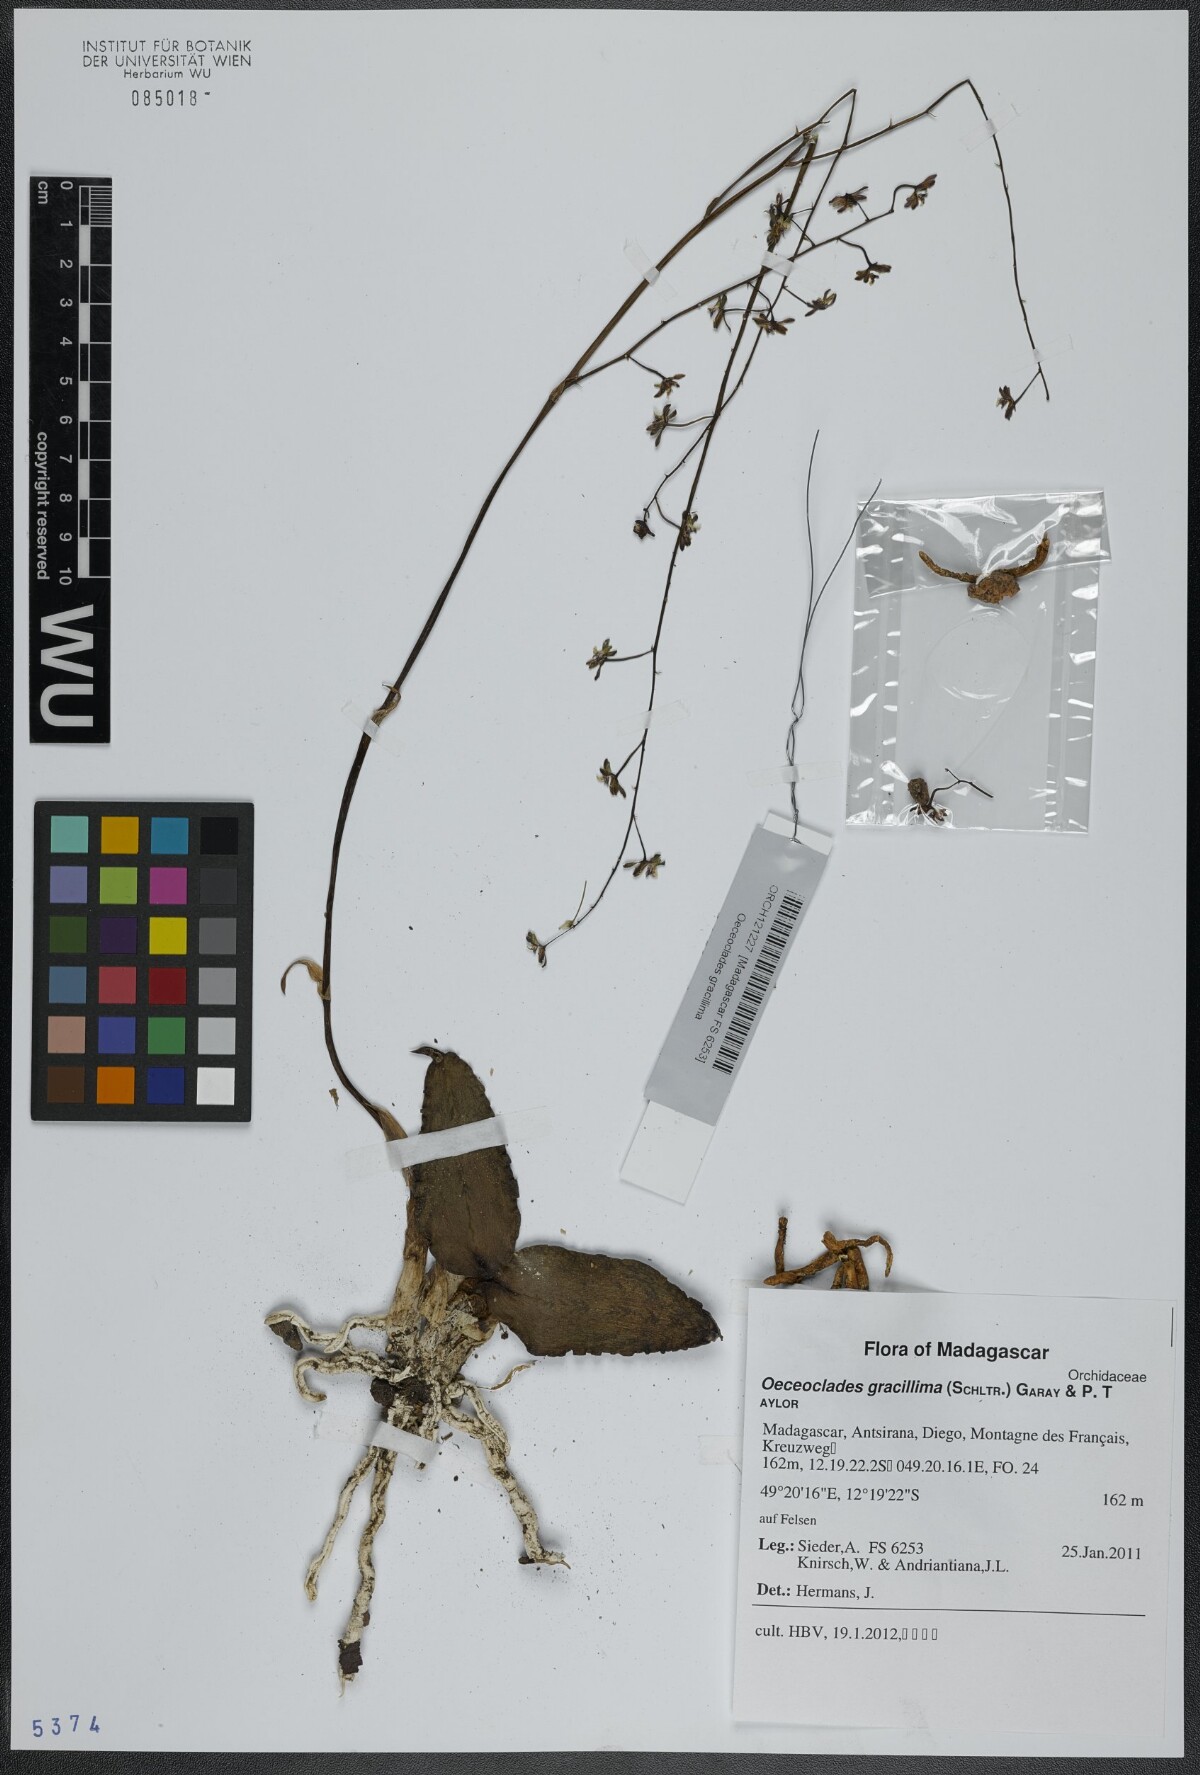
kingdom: Plantae
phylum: Tracheophyta
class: Liliopsida
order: Asparagales
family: Orchidaceae
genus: Eulophia
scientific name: Eulophia roseovariegata
